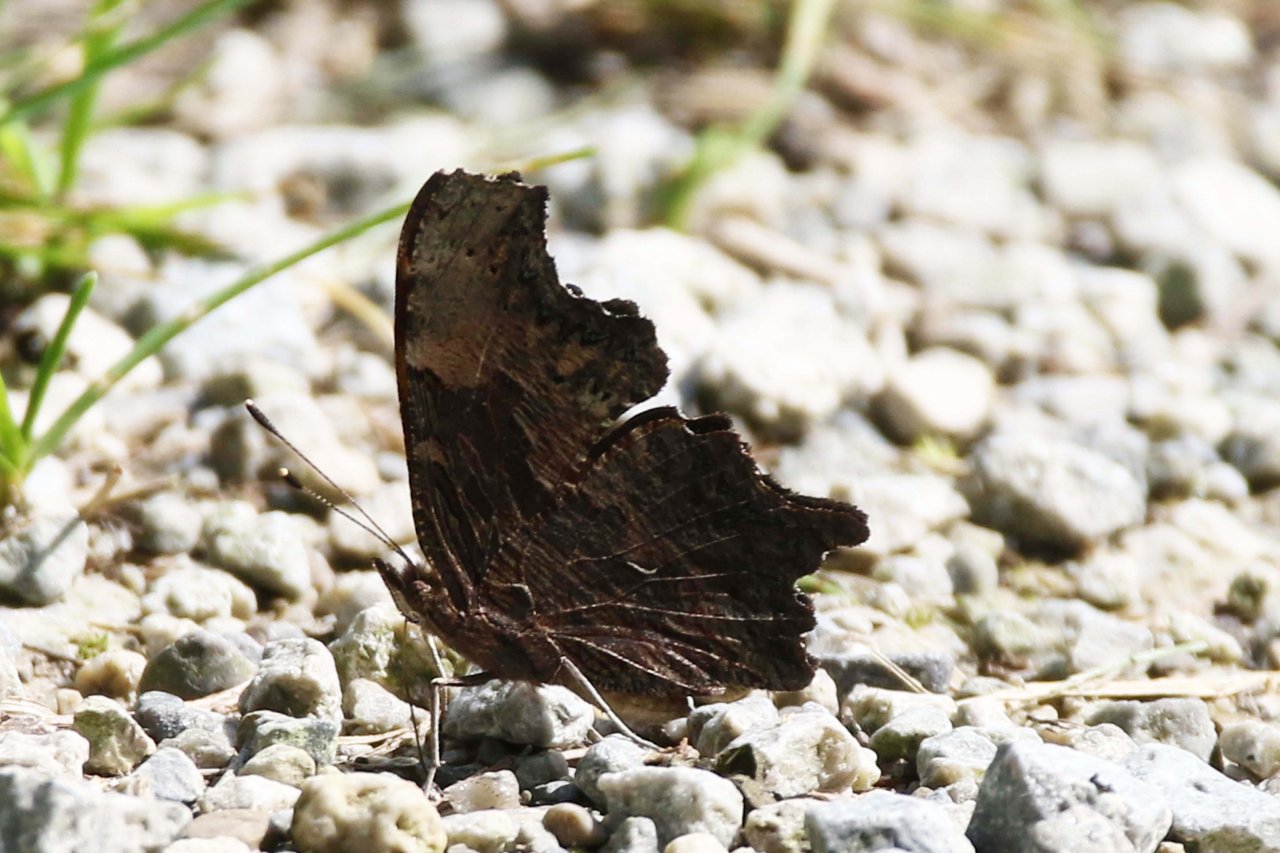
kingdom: Animalia
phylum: Arthropoda
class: Insecta
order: Lepidoptera
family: Nymphalidae
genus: Polygonia
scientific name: Polygonia progne
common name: Gray Comma
